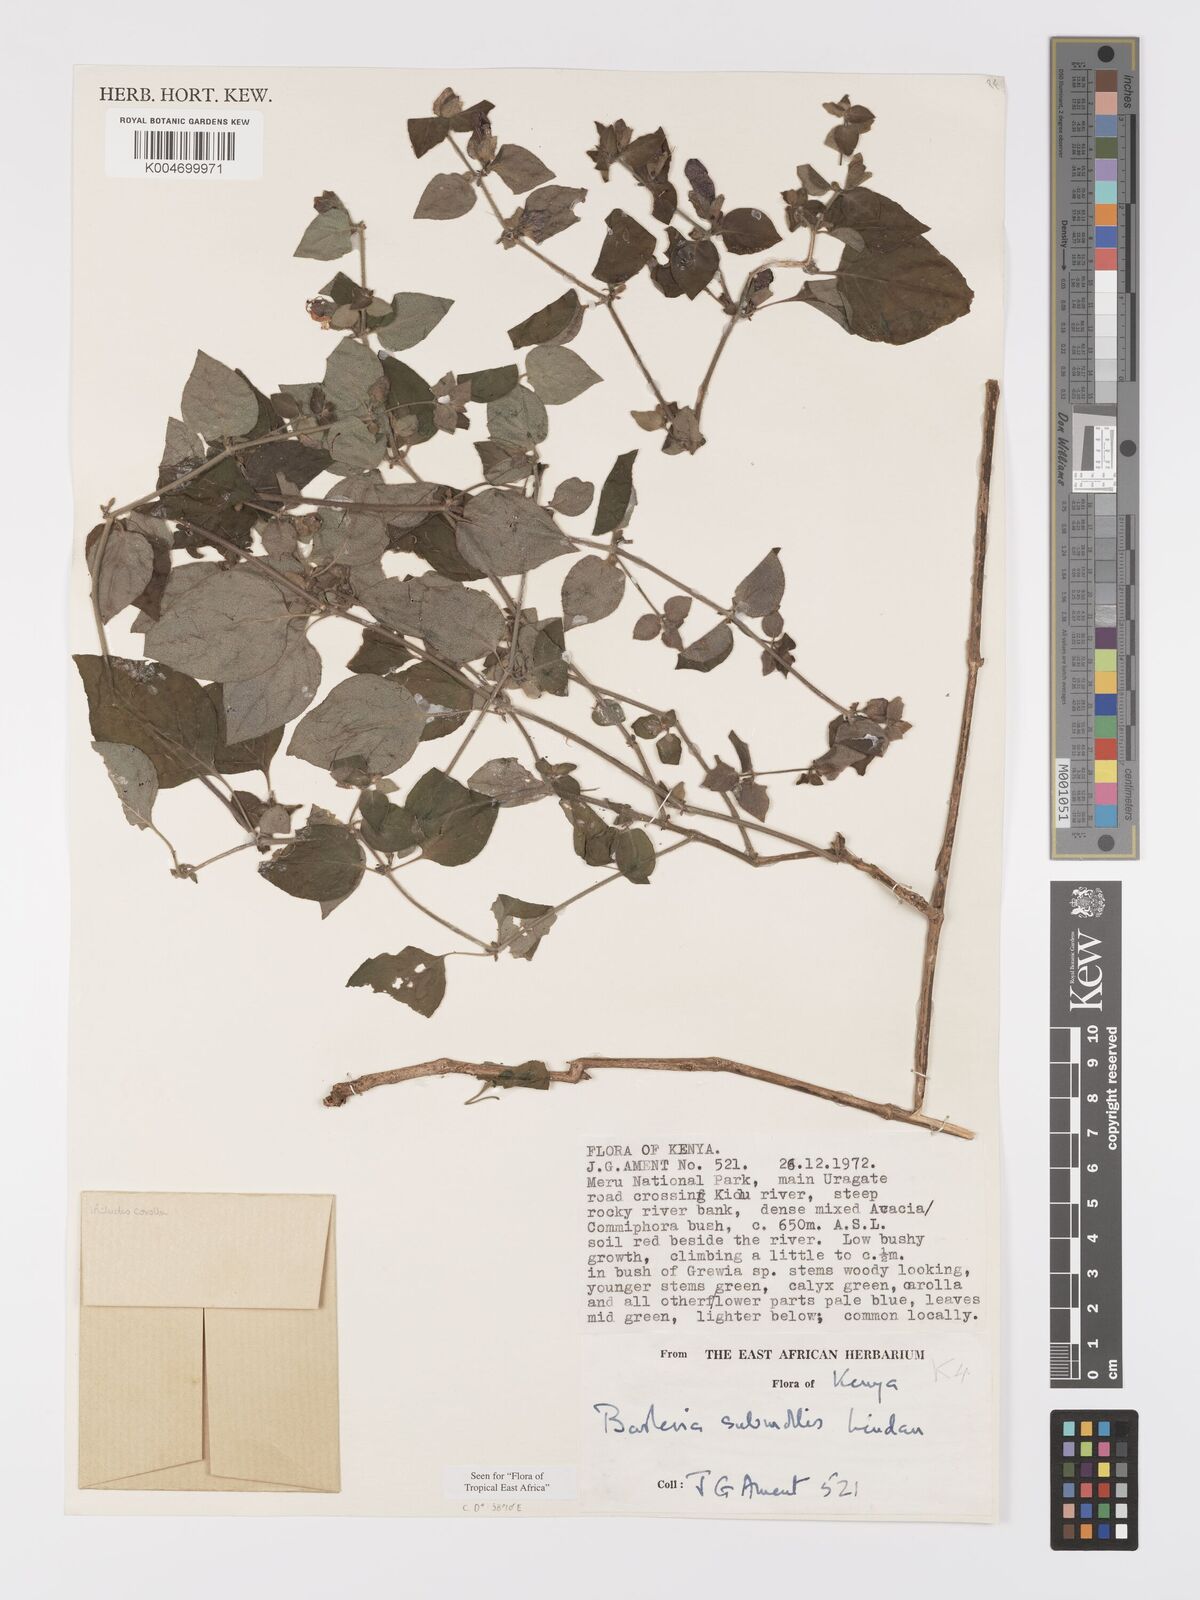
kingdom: Plantae
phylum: Tracheophyta
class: Magnoliopsida
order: Lamiales
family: Acanthaceae
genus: Barleria
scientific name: Barleria submollis
